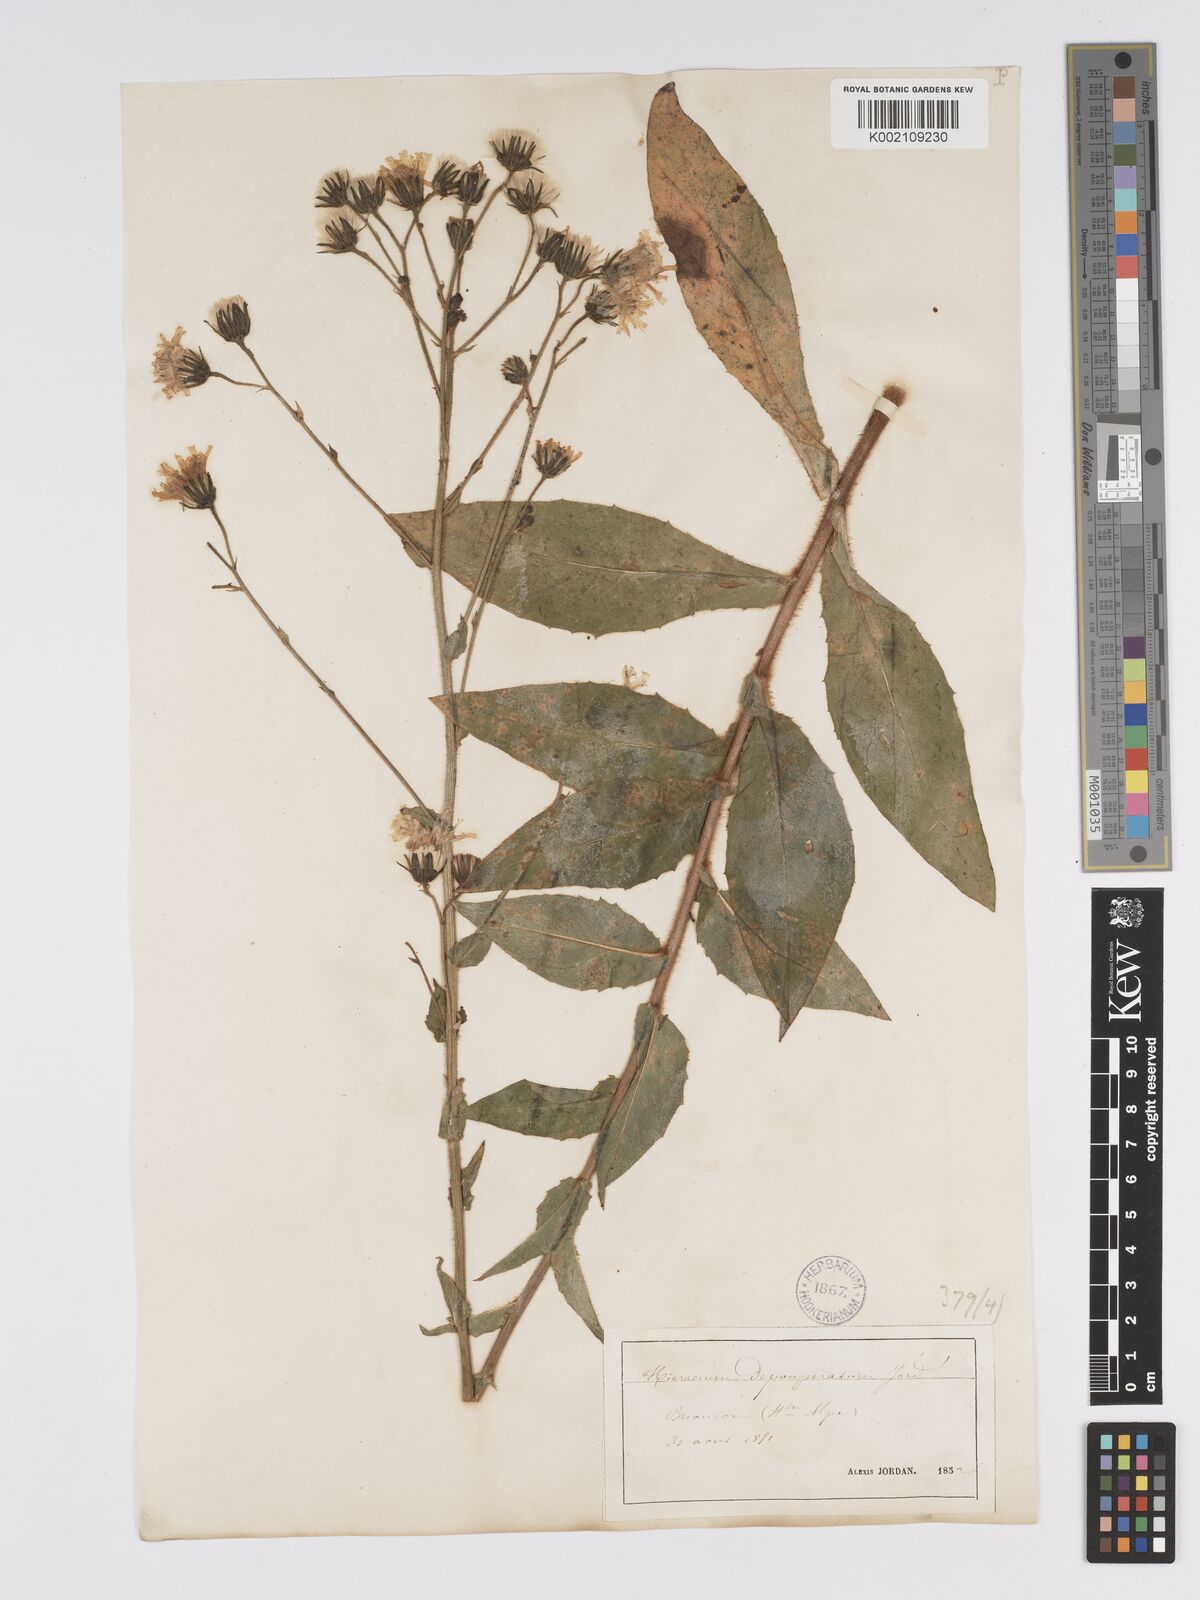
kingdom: Plantae
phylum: Tracheophyta
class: Magnoliopsida
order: Asterales
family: Asteraceae
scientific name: Asteraceae
